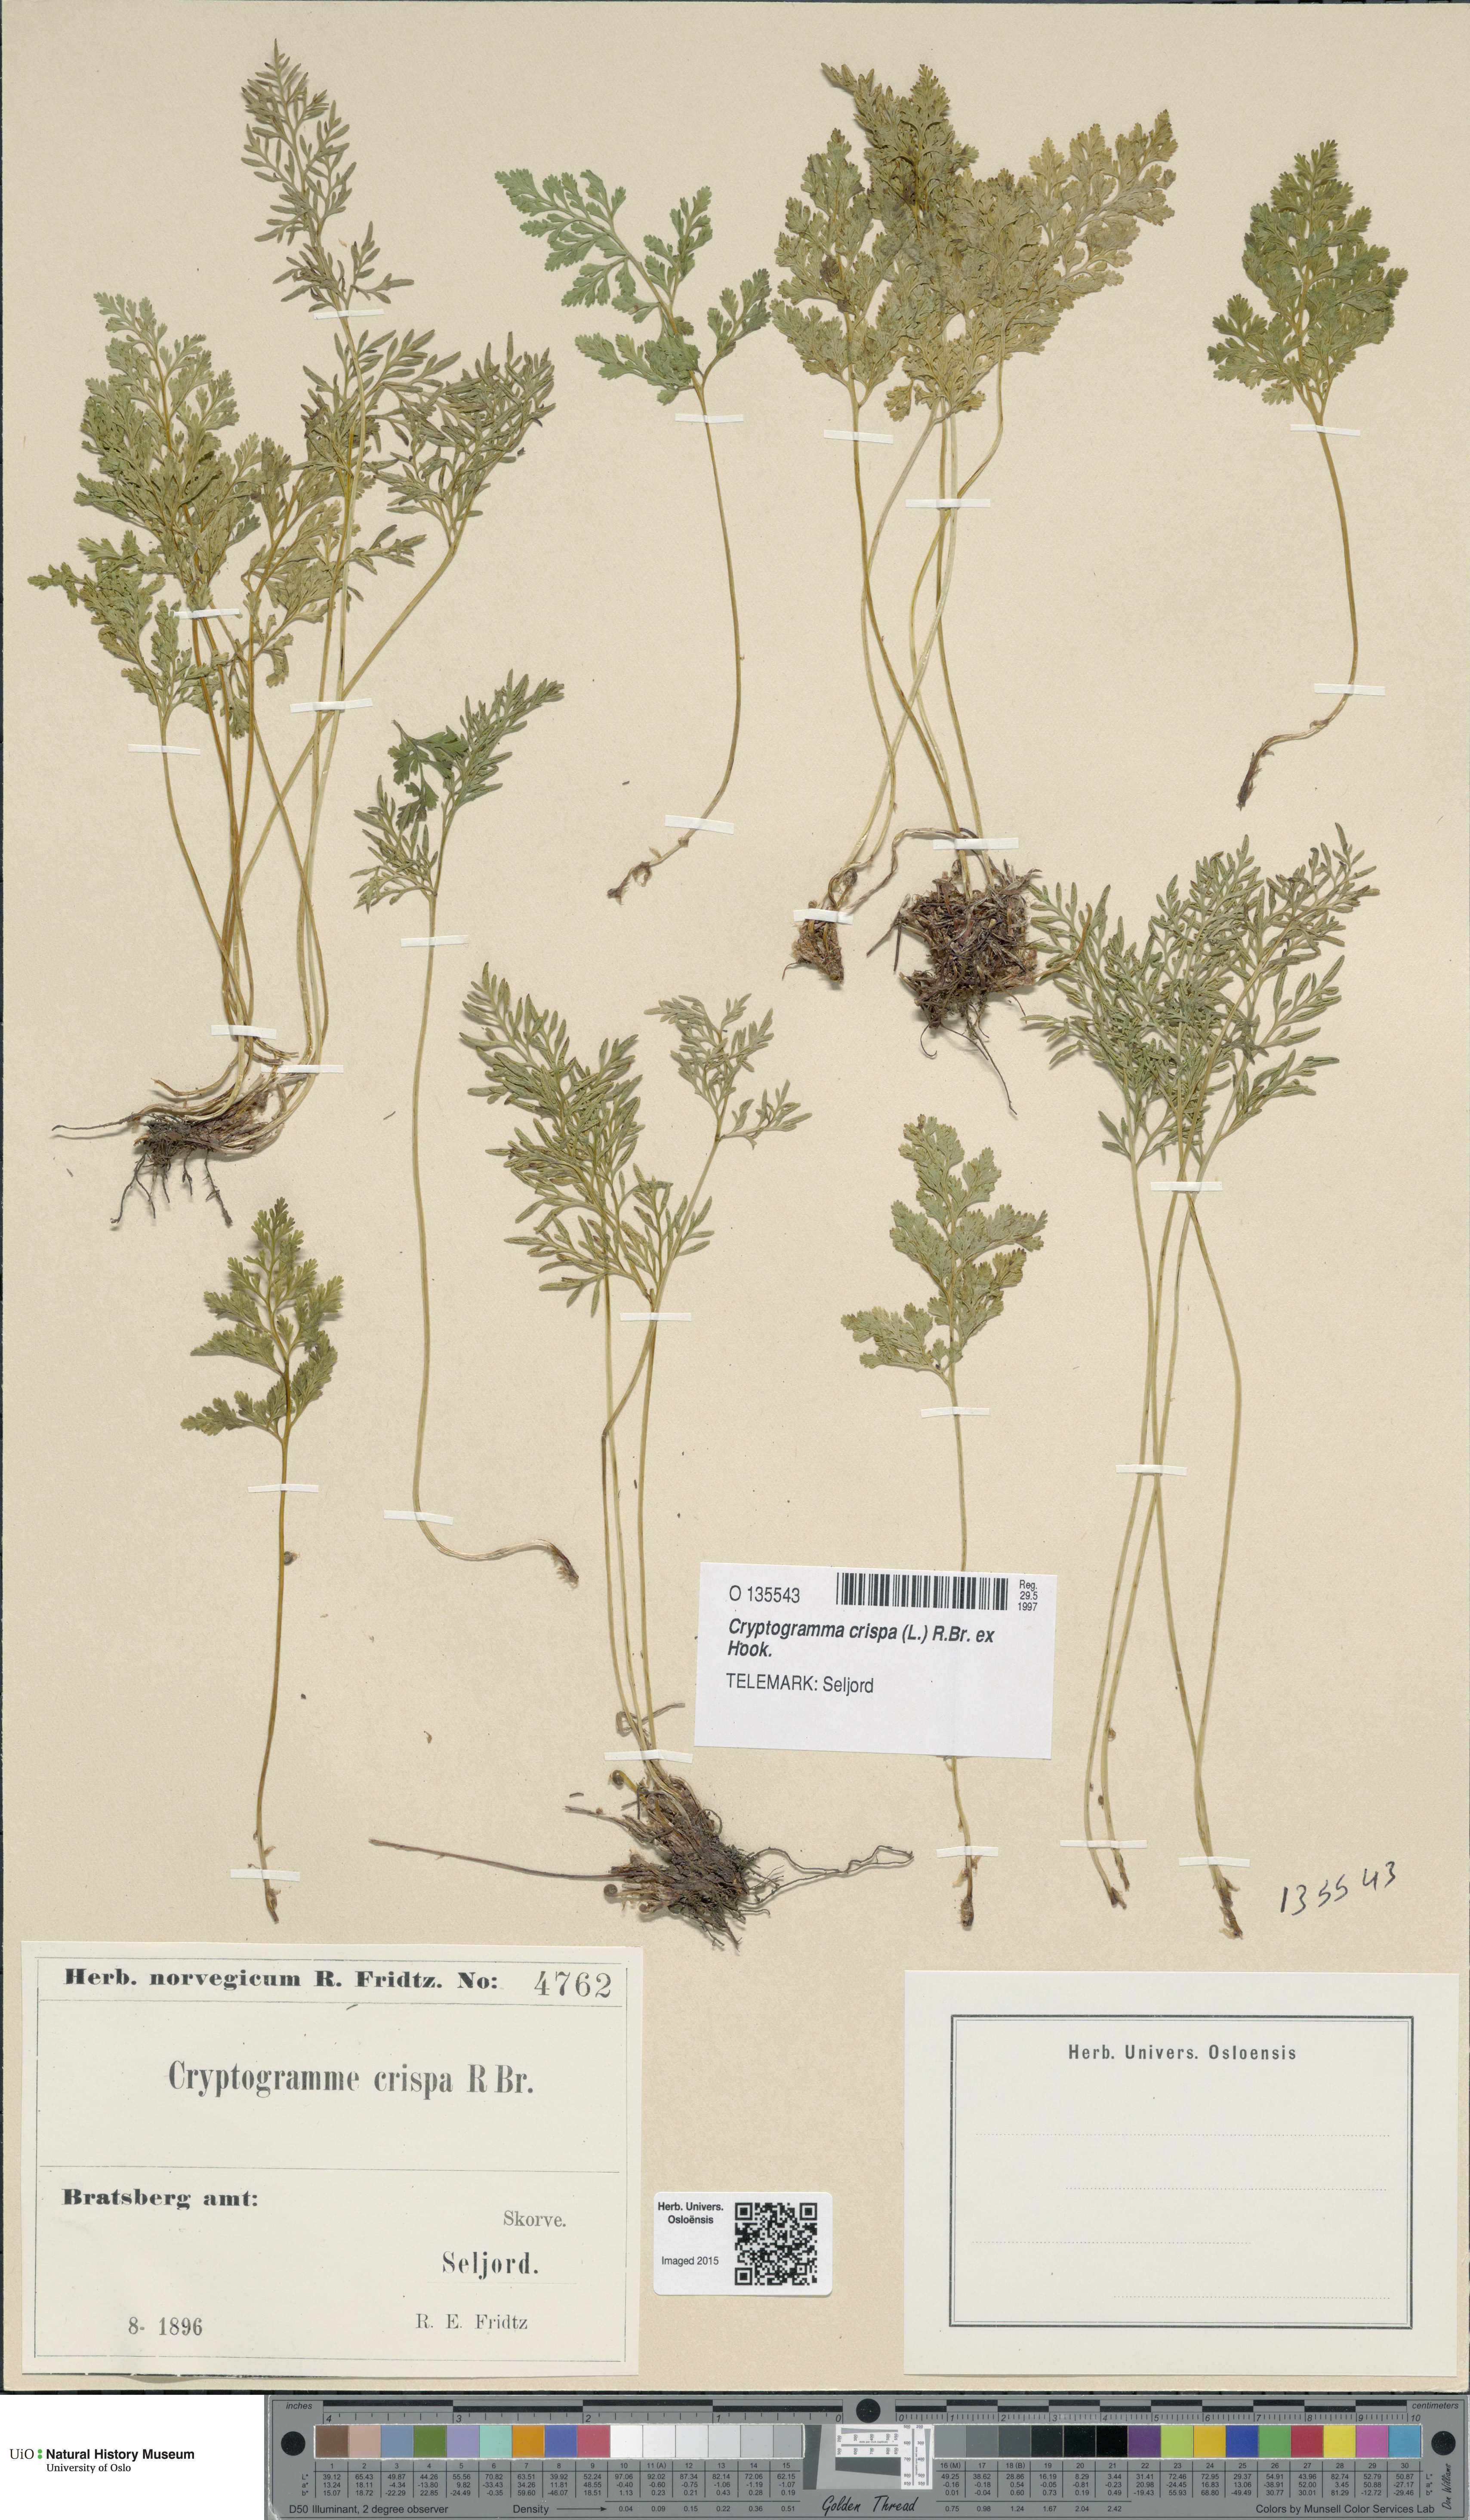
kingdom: Plantae
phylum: Tracheophyta
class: Polypodiopsida
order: Polypodiales
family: Pteridaceae
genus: Cryptogramma
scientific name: Cryptogramma crispa
